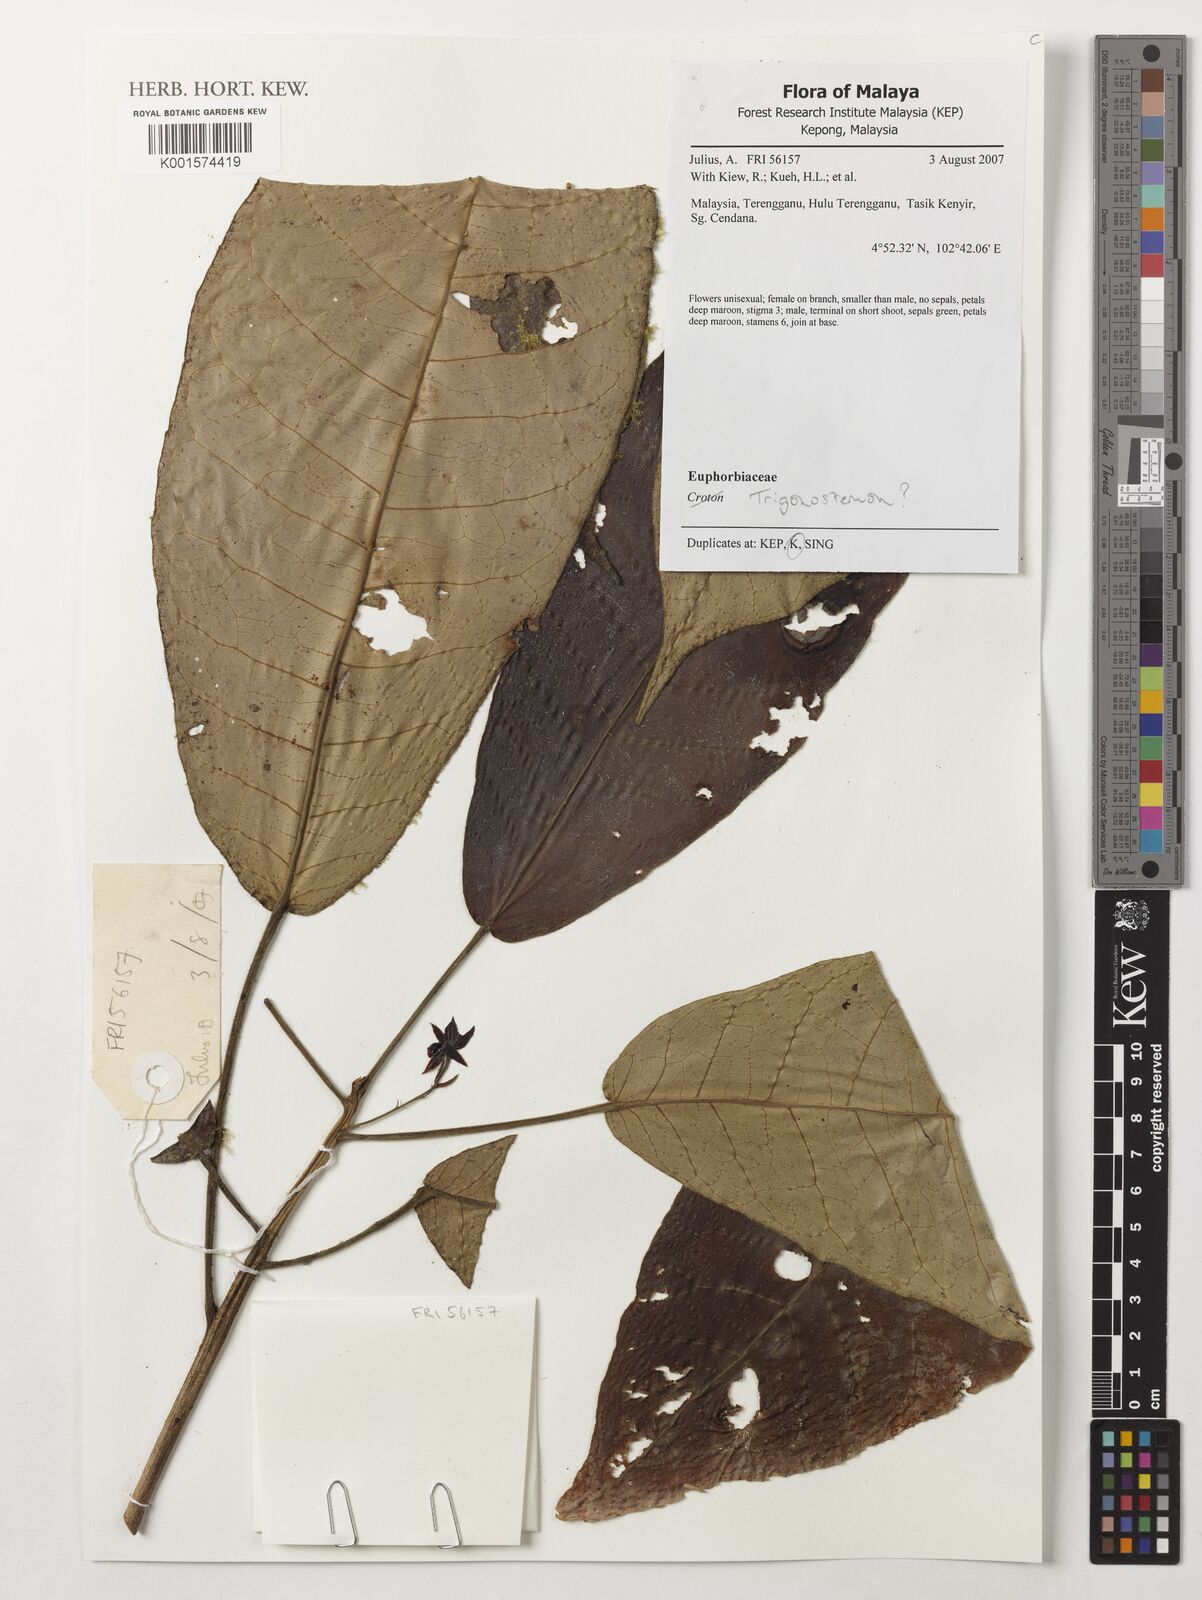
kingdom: Plantae
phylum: Tracheophyta
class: Magnoliopsida
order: Malpighiales
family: Euphorbiaceae
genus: Trigonostemon
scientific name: Trigonostemon
